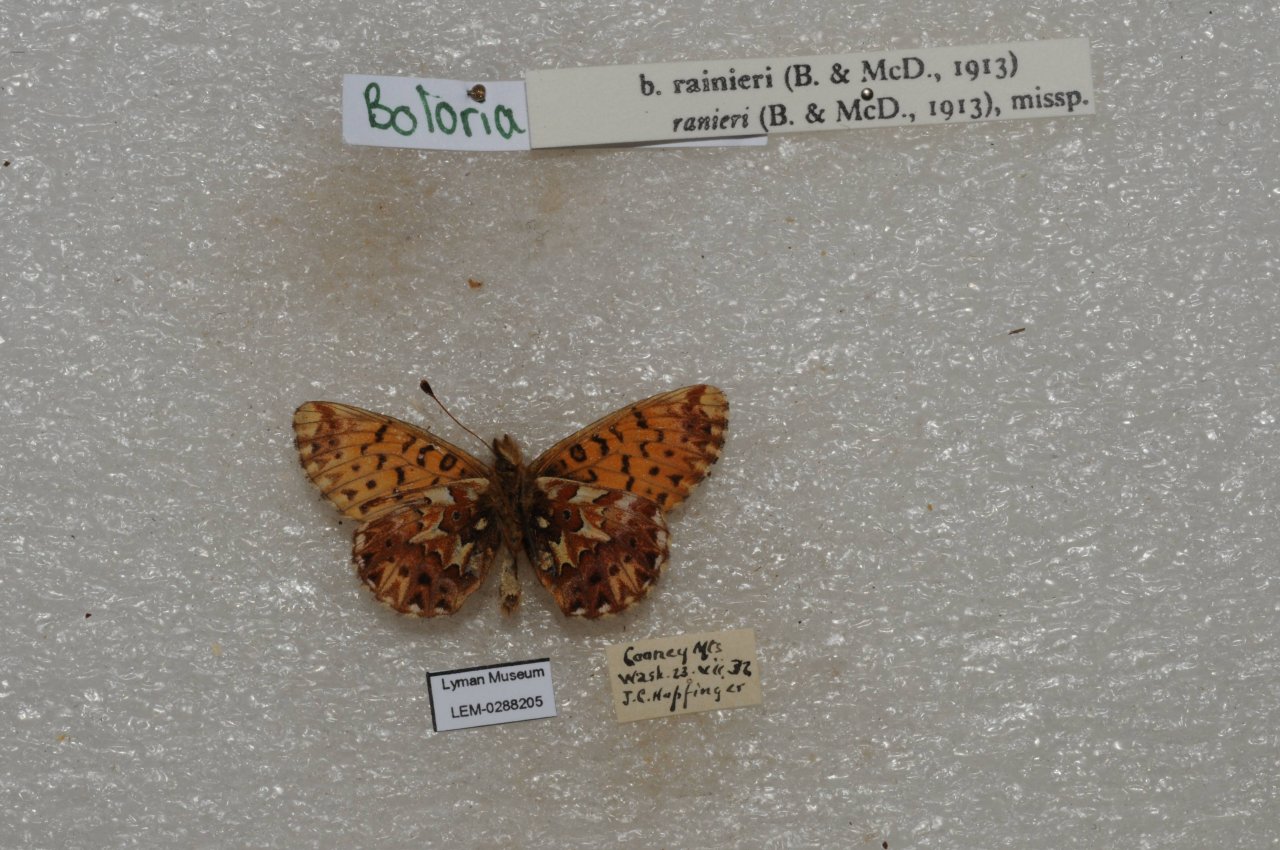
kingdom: Animalia
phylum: Arthropoda
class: Insecta
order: Lepidoptera
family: Nymphalidae
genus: Boloria
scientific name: Boloria chariclea
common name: Arctic Fritillary
